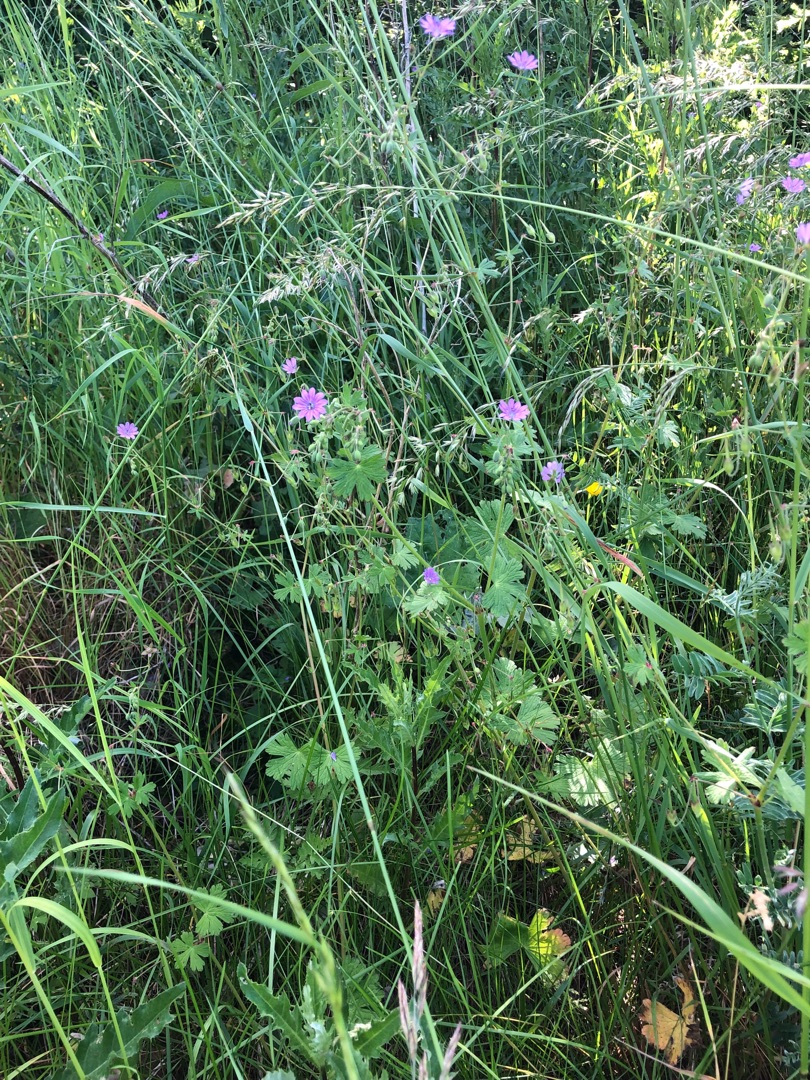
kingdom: Plantae
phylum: Tracheophyta
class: Magnoliopsida
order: Geraniales
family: Geraniaceae
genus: Geranium
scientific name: Geranium pyrenaicum
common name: Pyrenæisk storkenæb
